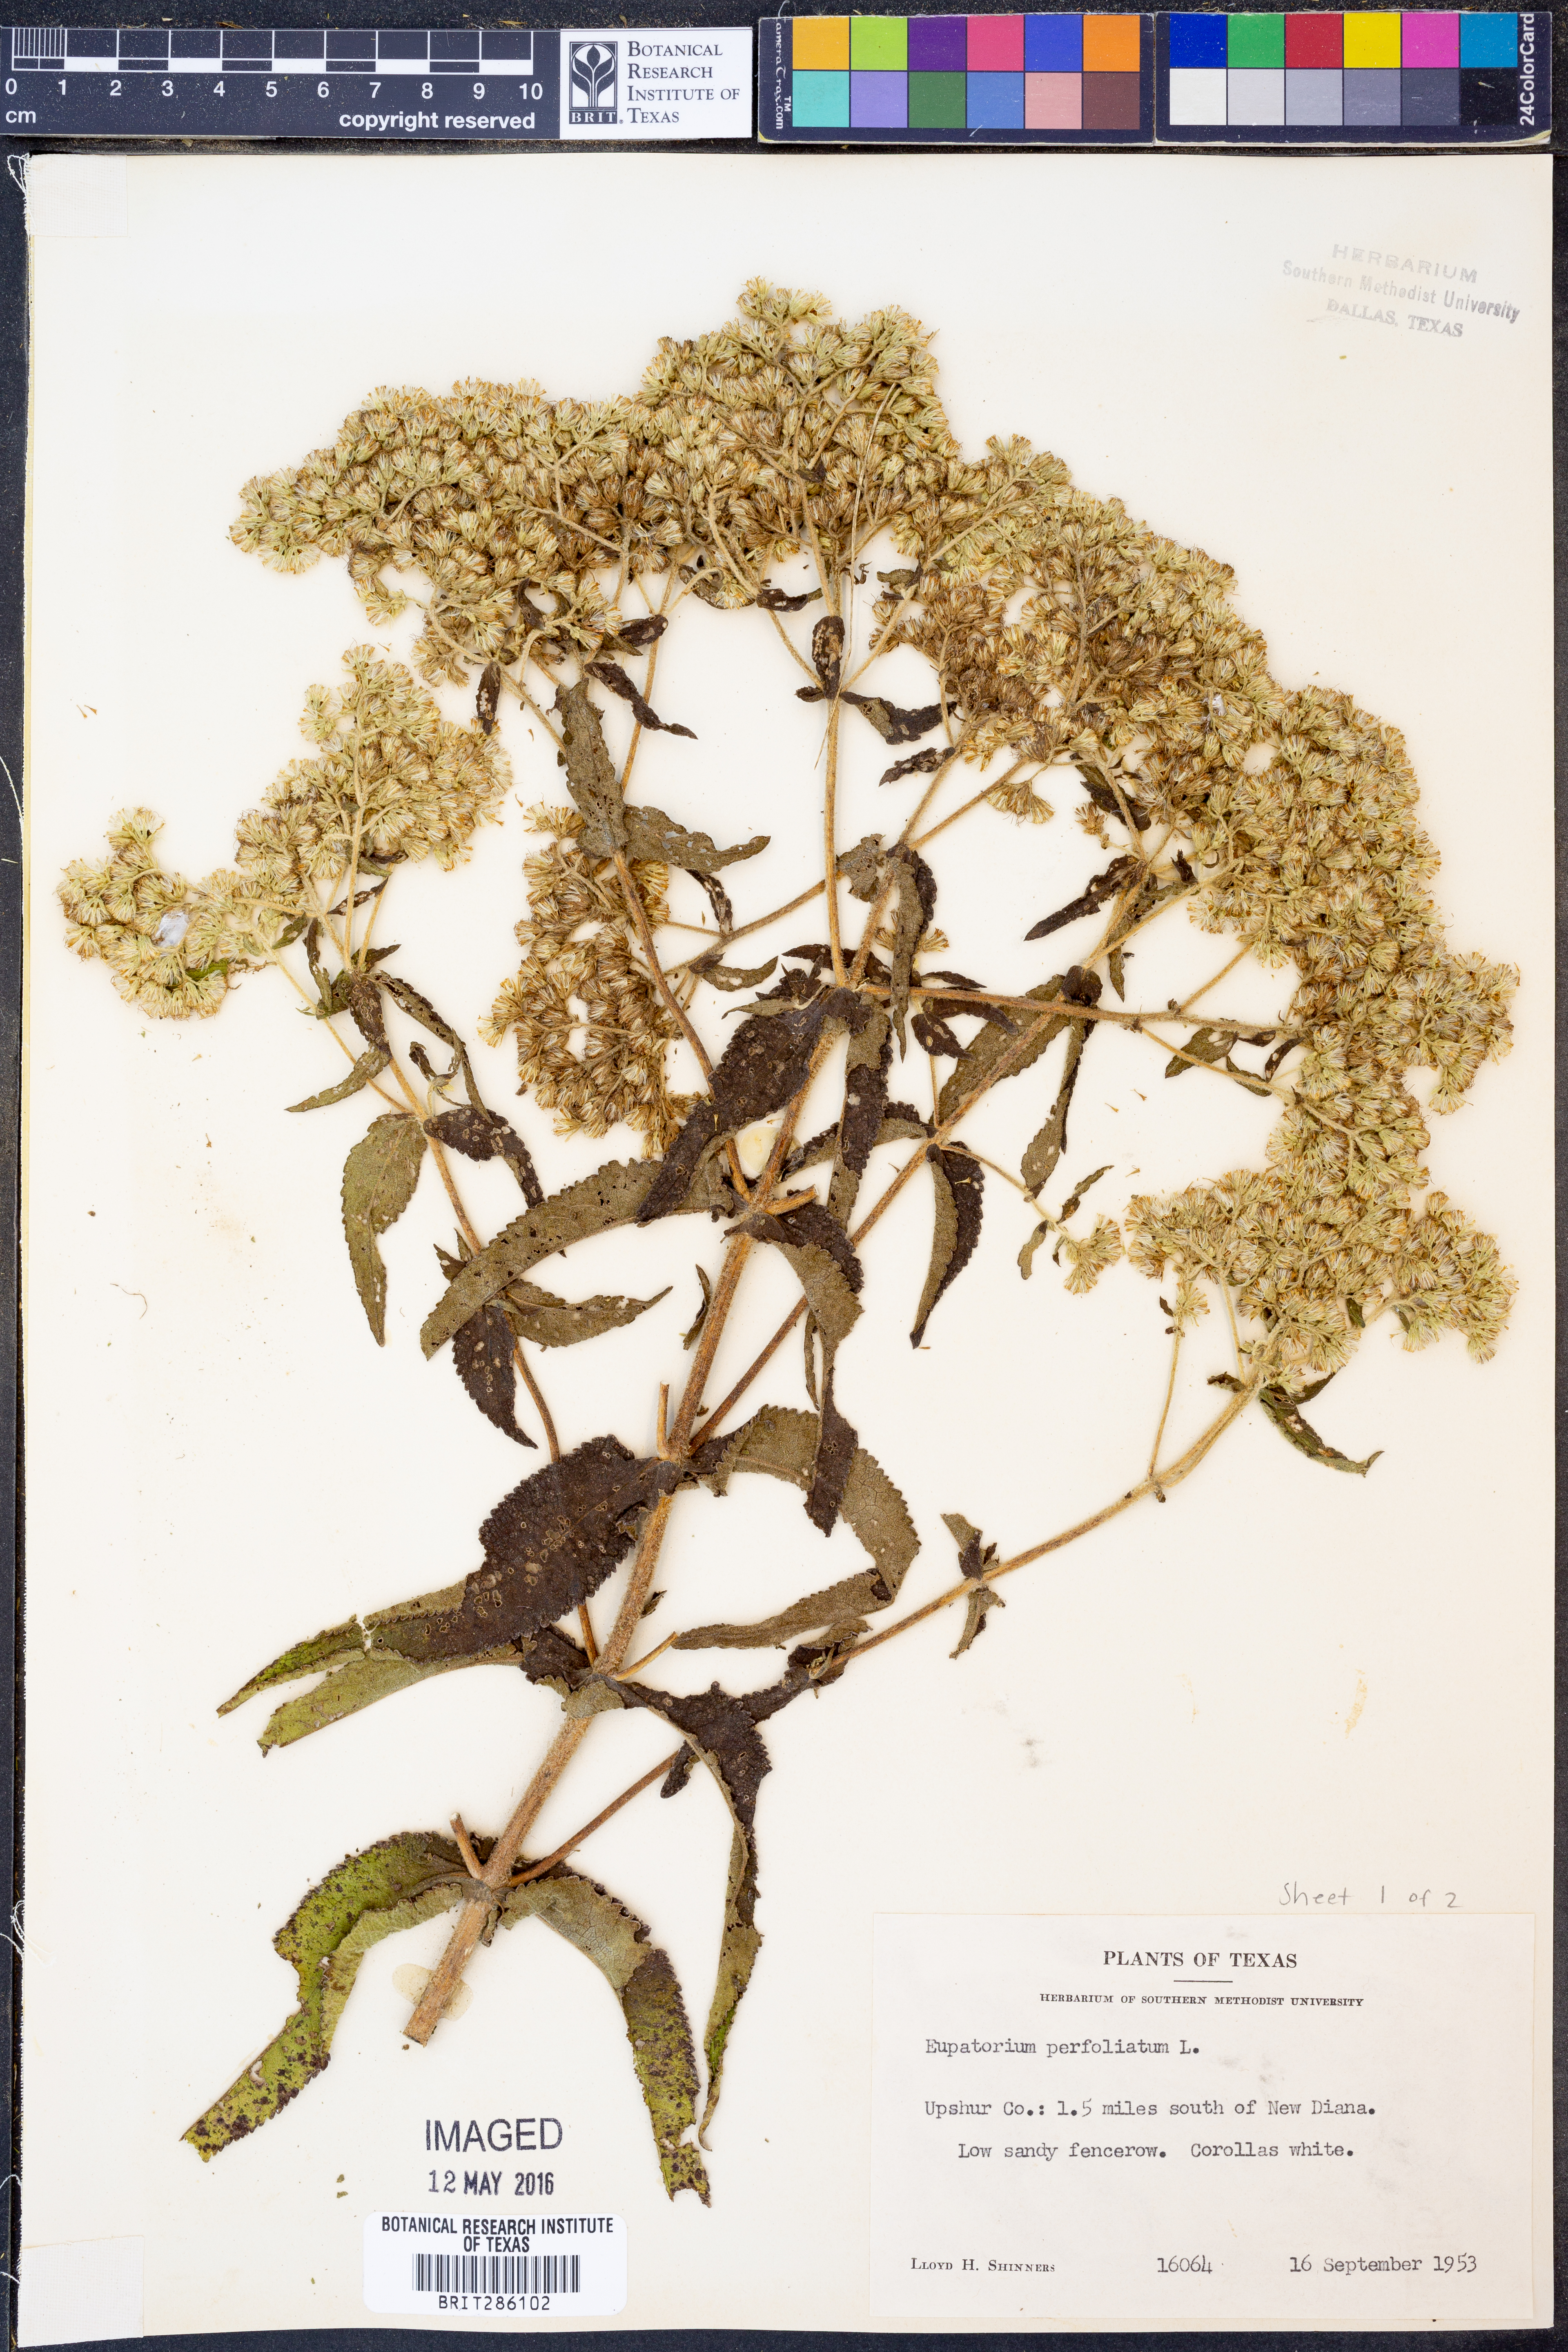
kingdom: Plantae
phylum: Tracheophyta
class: Magnoliopsida
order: Asterales
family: Asteraceae
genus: Eupatorium
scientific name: Eupatorium perfoliatum
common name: Boneset
